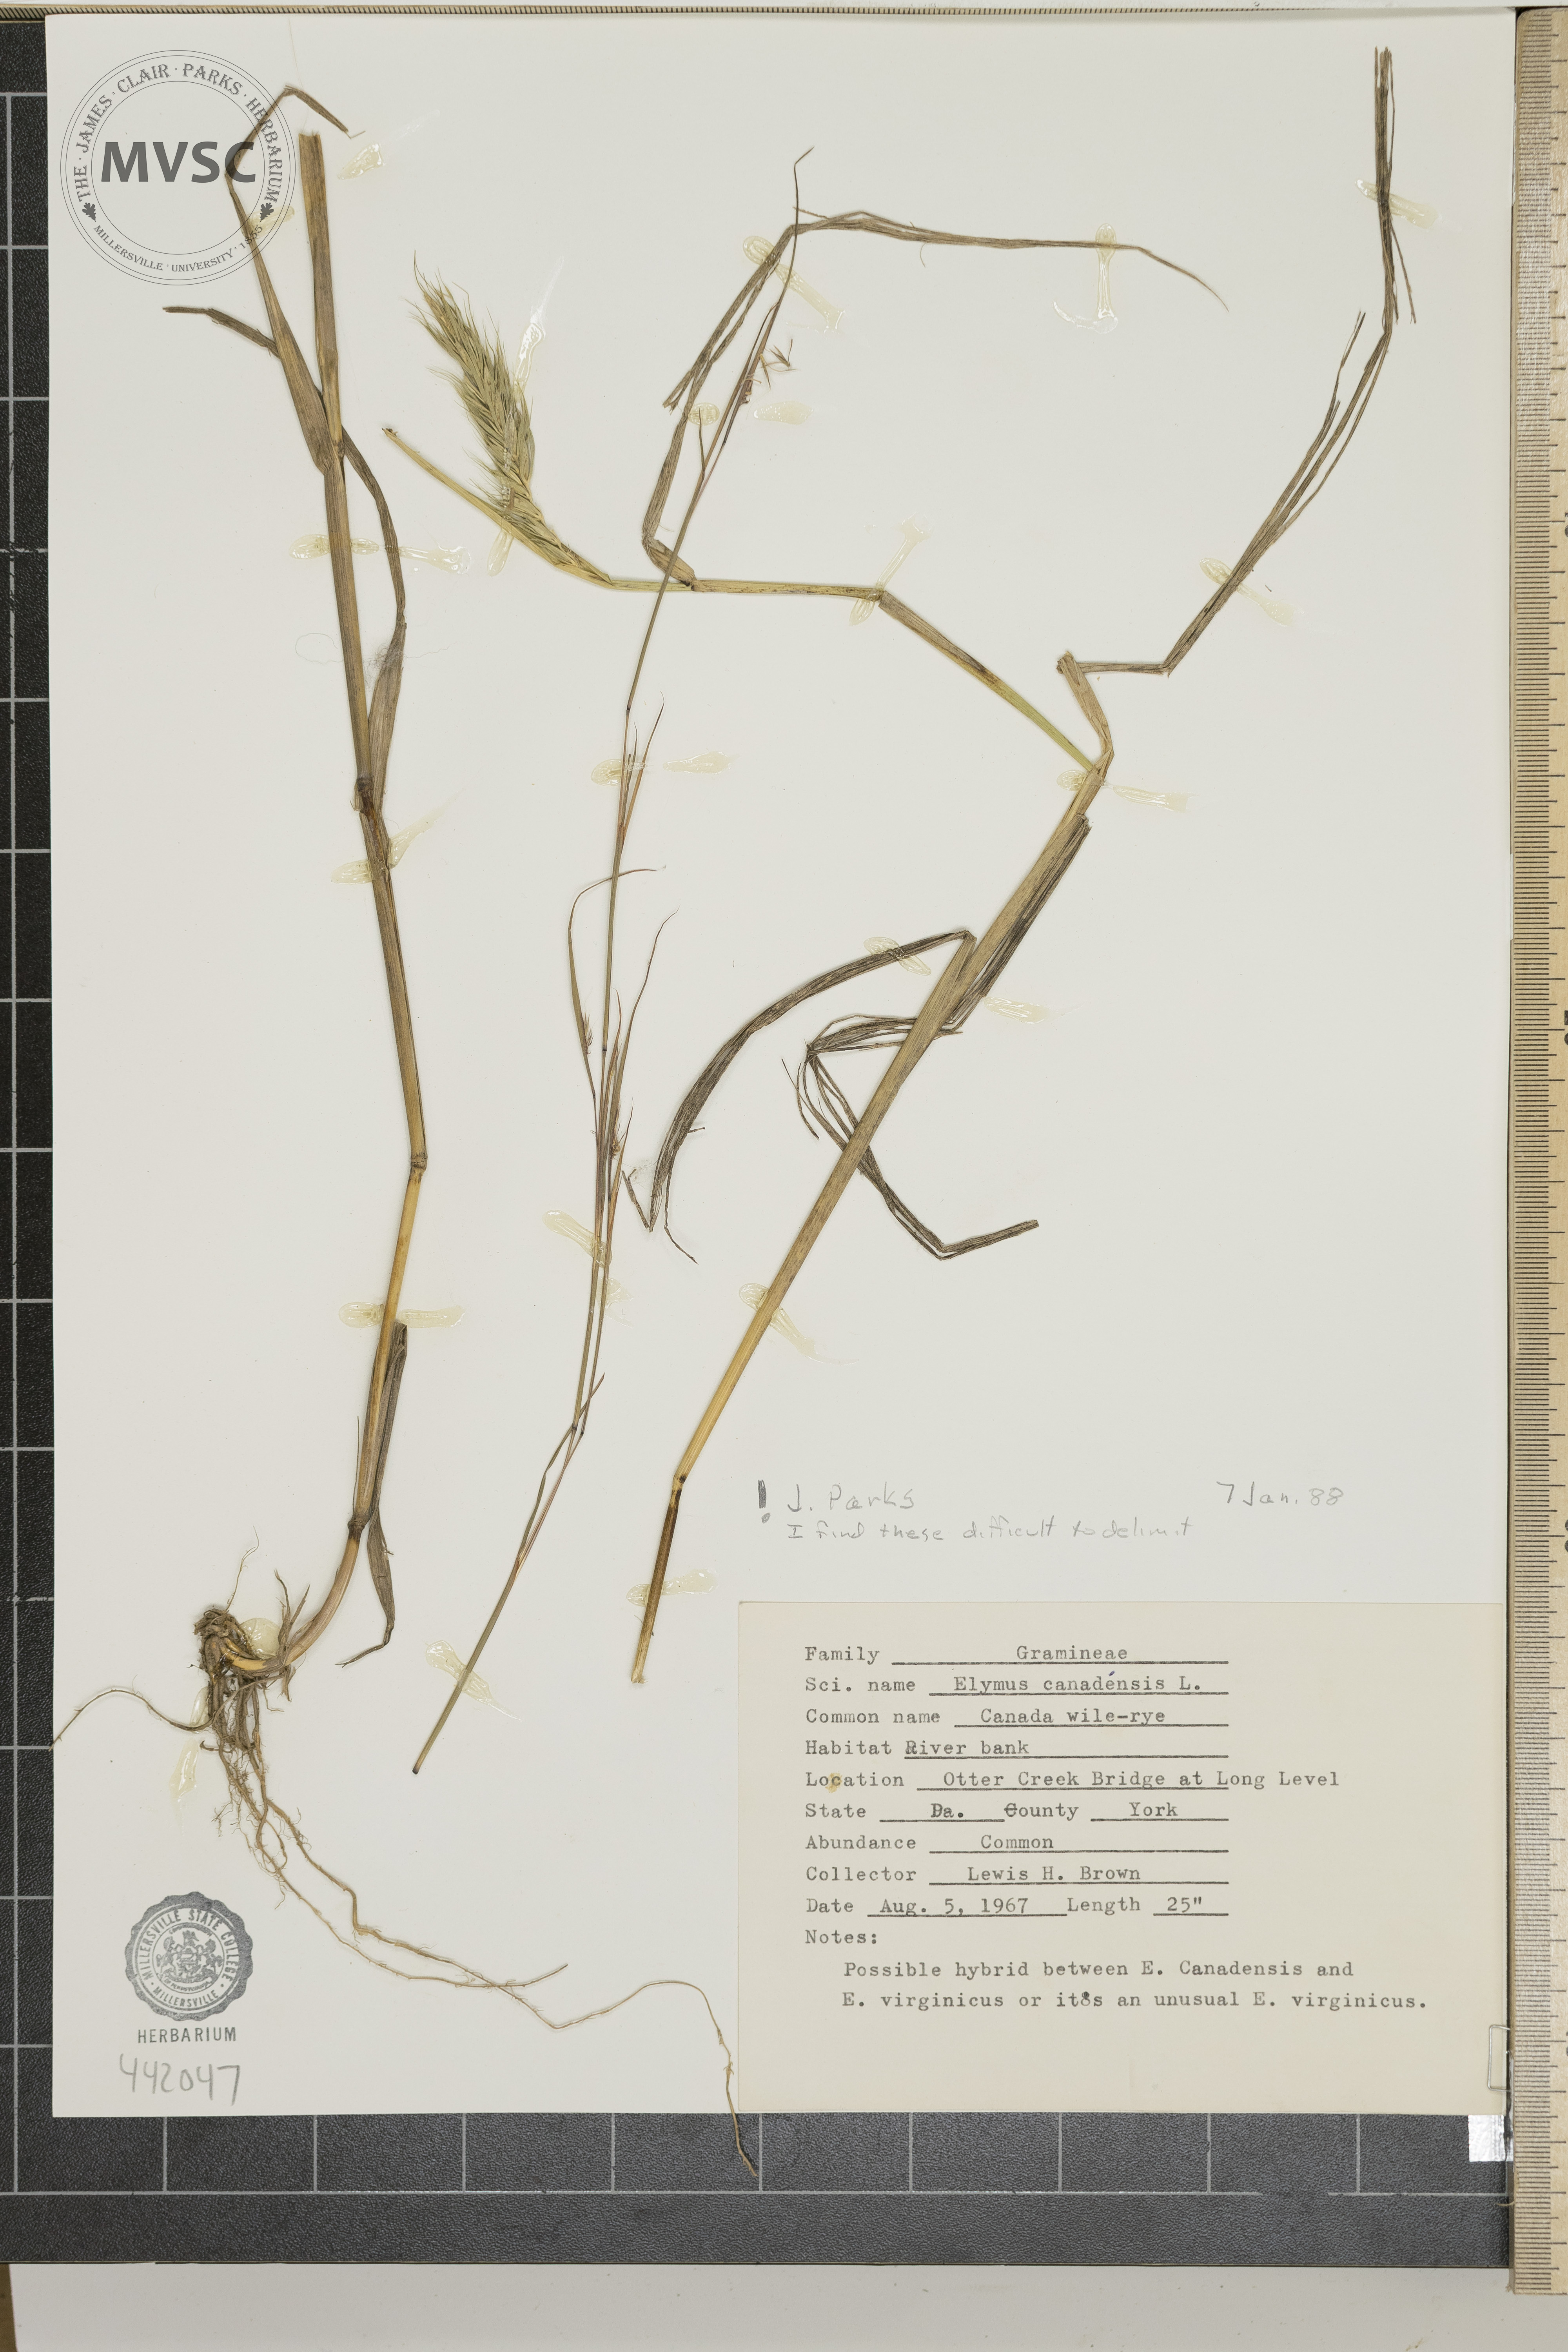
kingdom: Plantae
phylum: Tracheophyta
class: Liliopsida
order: Poales
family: Poaceae
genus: Elymus
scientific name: Elymus canadensis
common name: Canada wild rye
